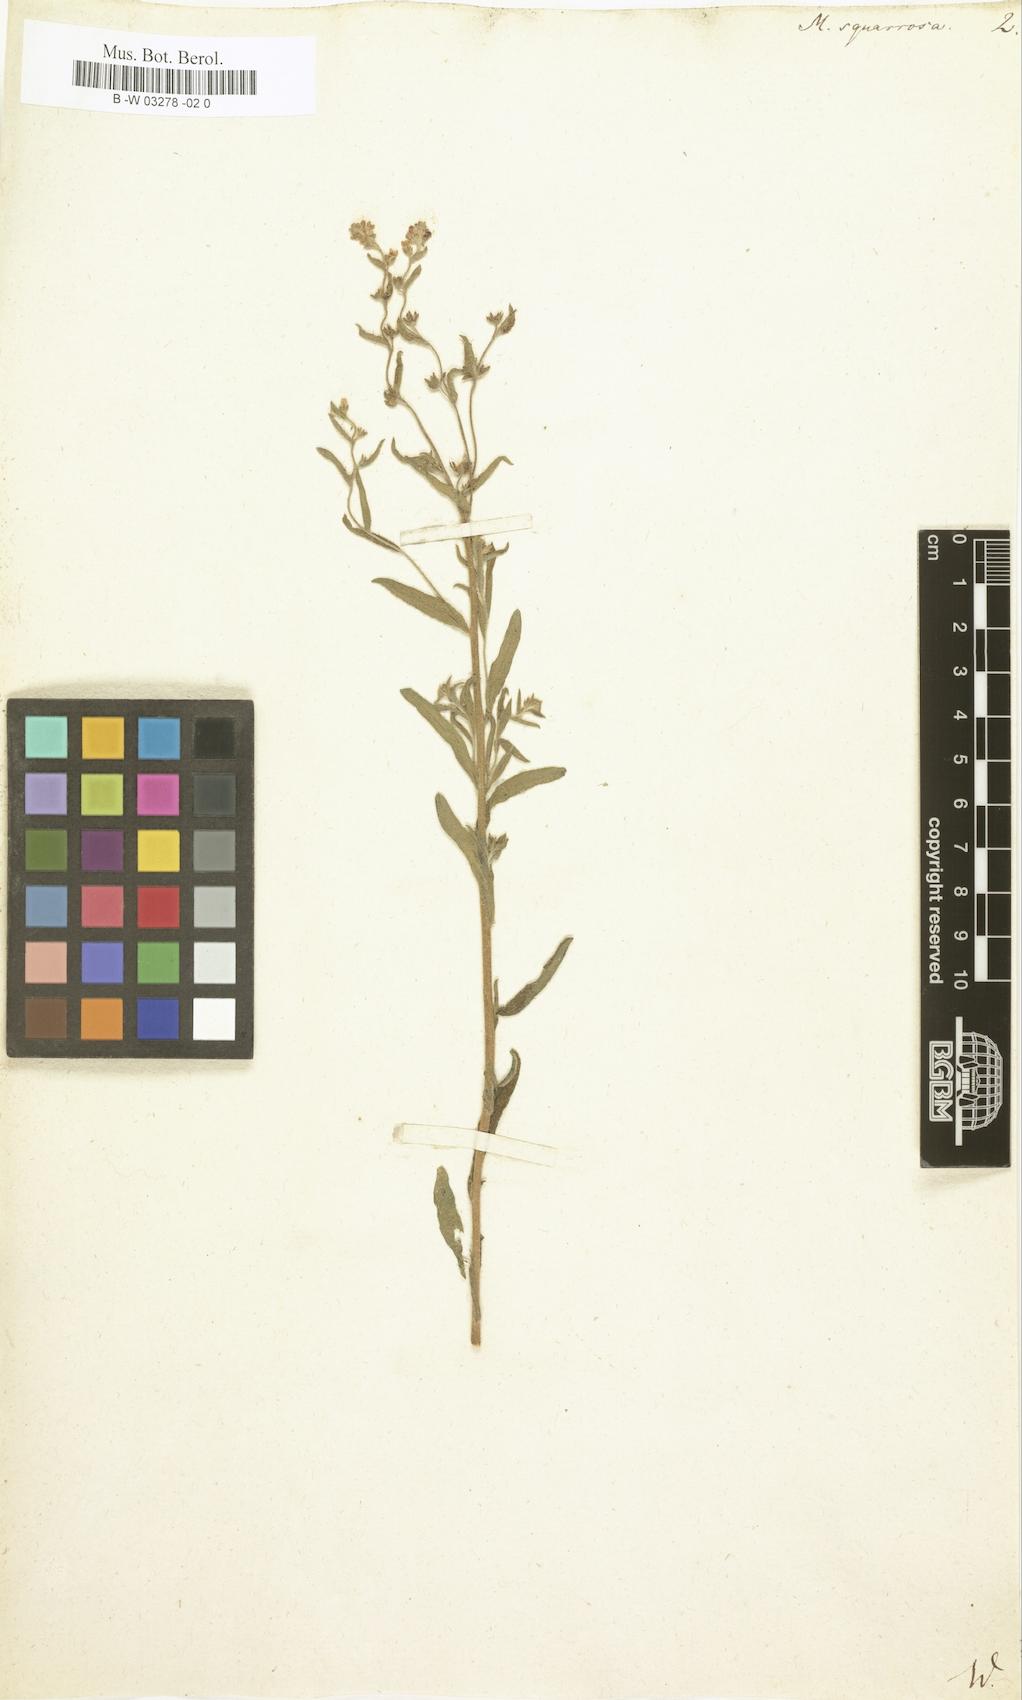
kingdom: Plantae
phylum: Tracheophyta
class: Magnoliopsida
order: Boraginales
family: Boraginaceae
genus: Lappula
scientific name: Lappula squarrosa
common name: European stickseed
